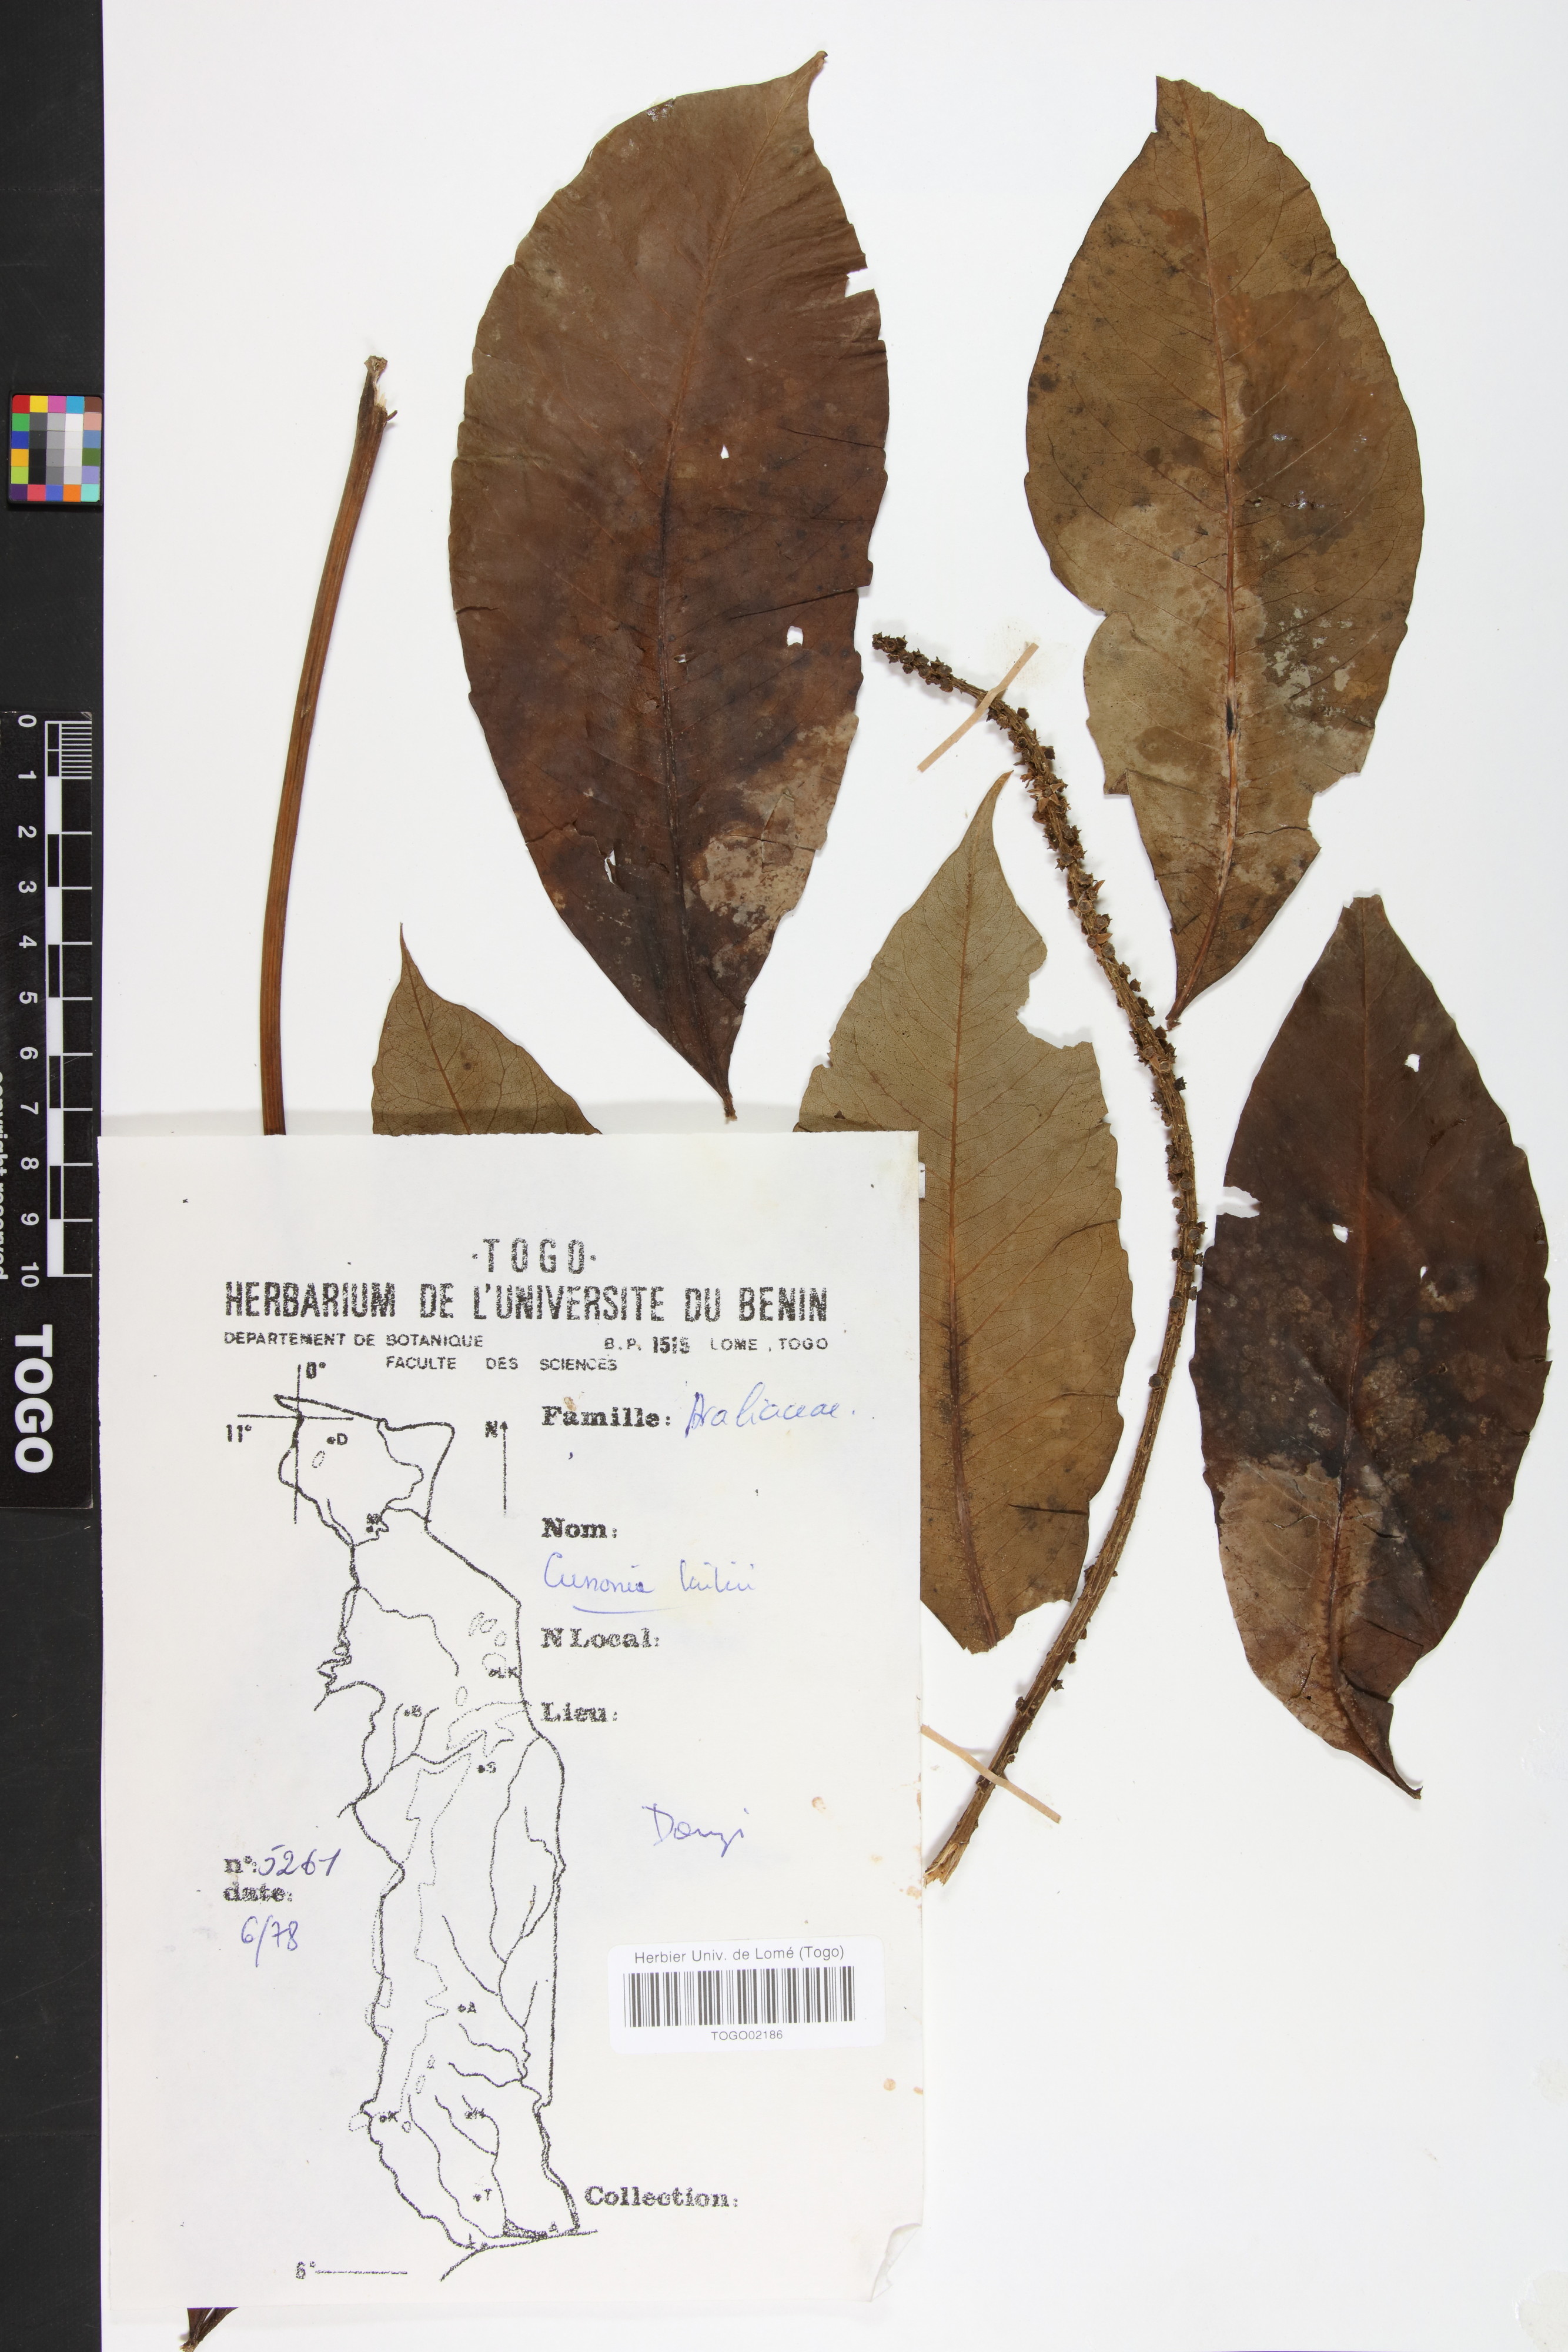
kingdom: Plantae
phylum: Tracheophyta
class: Magnoliopsida
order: Apiales
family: Araliaceae
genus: Cussonia
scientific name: Cussonia arborea
